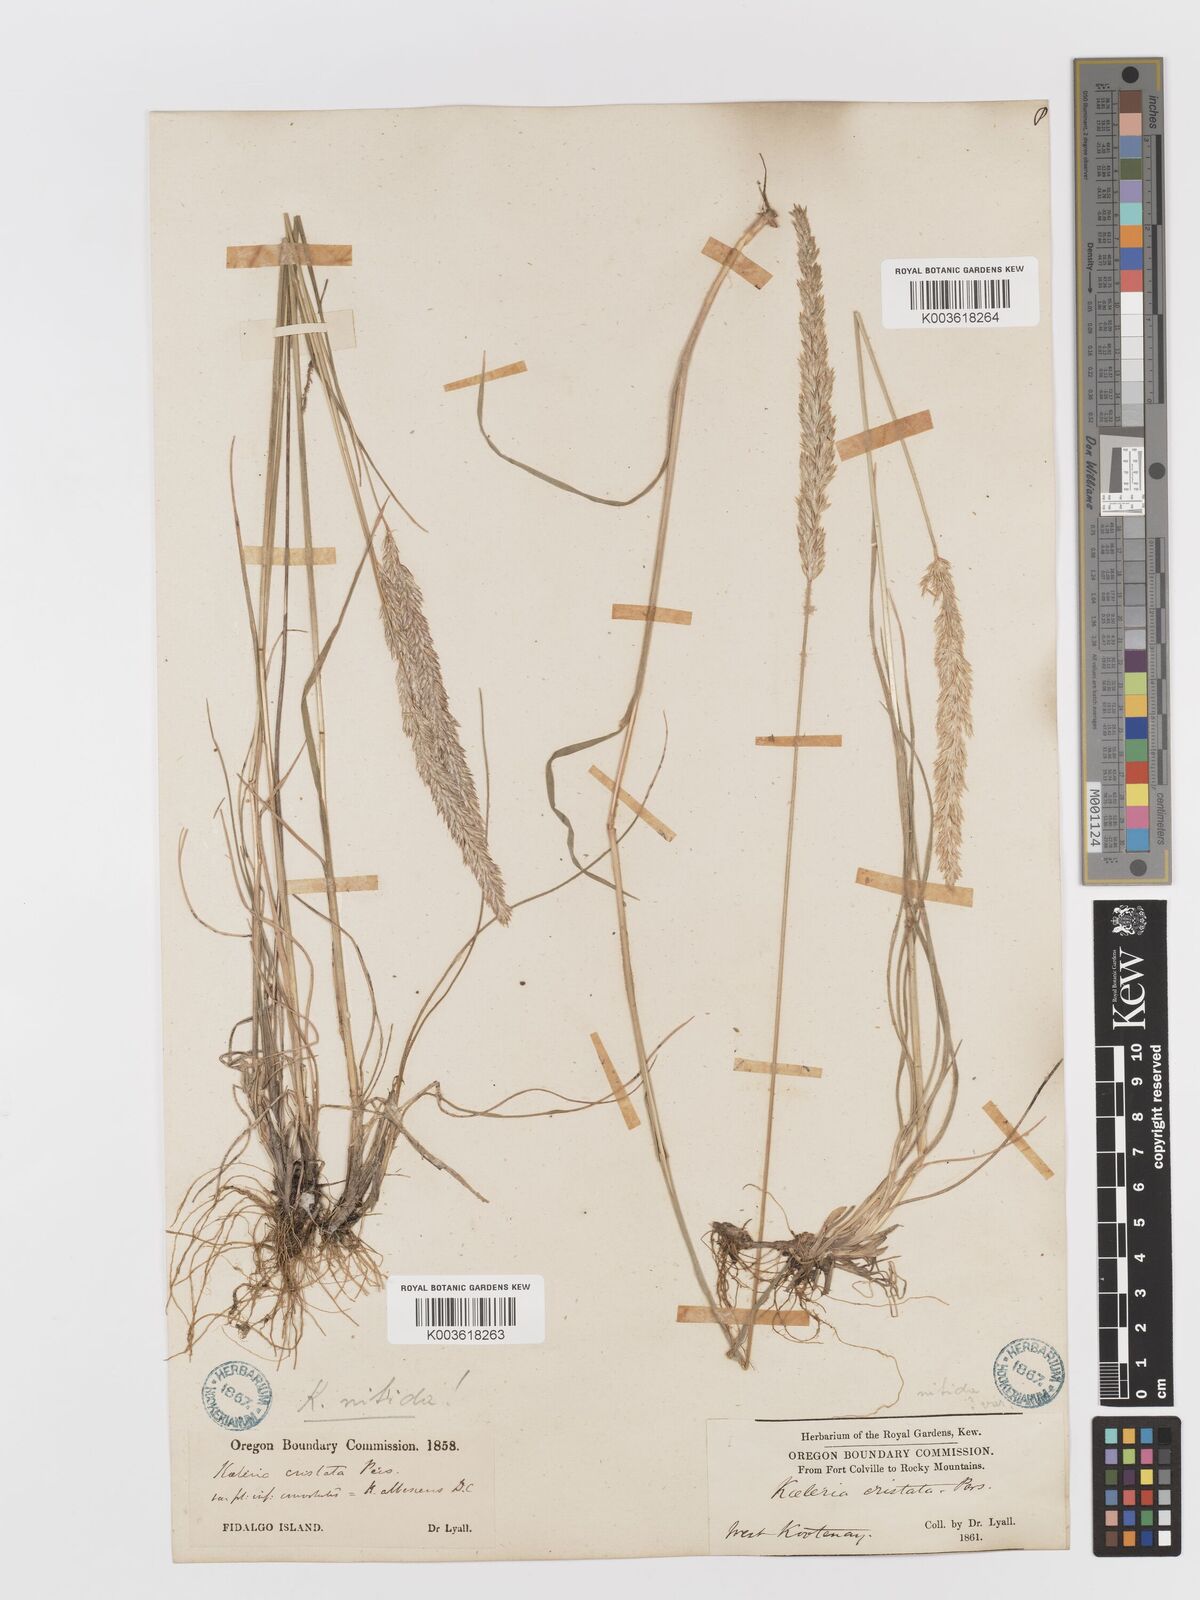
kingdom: Plantae
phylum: Tracheophyta
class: Liliopsida
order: Poales
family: Poaceae
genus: Koeleria
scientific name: Koeleria macrantha
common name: Crested hair-grass
